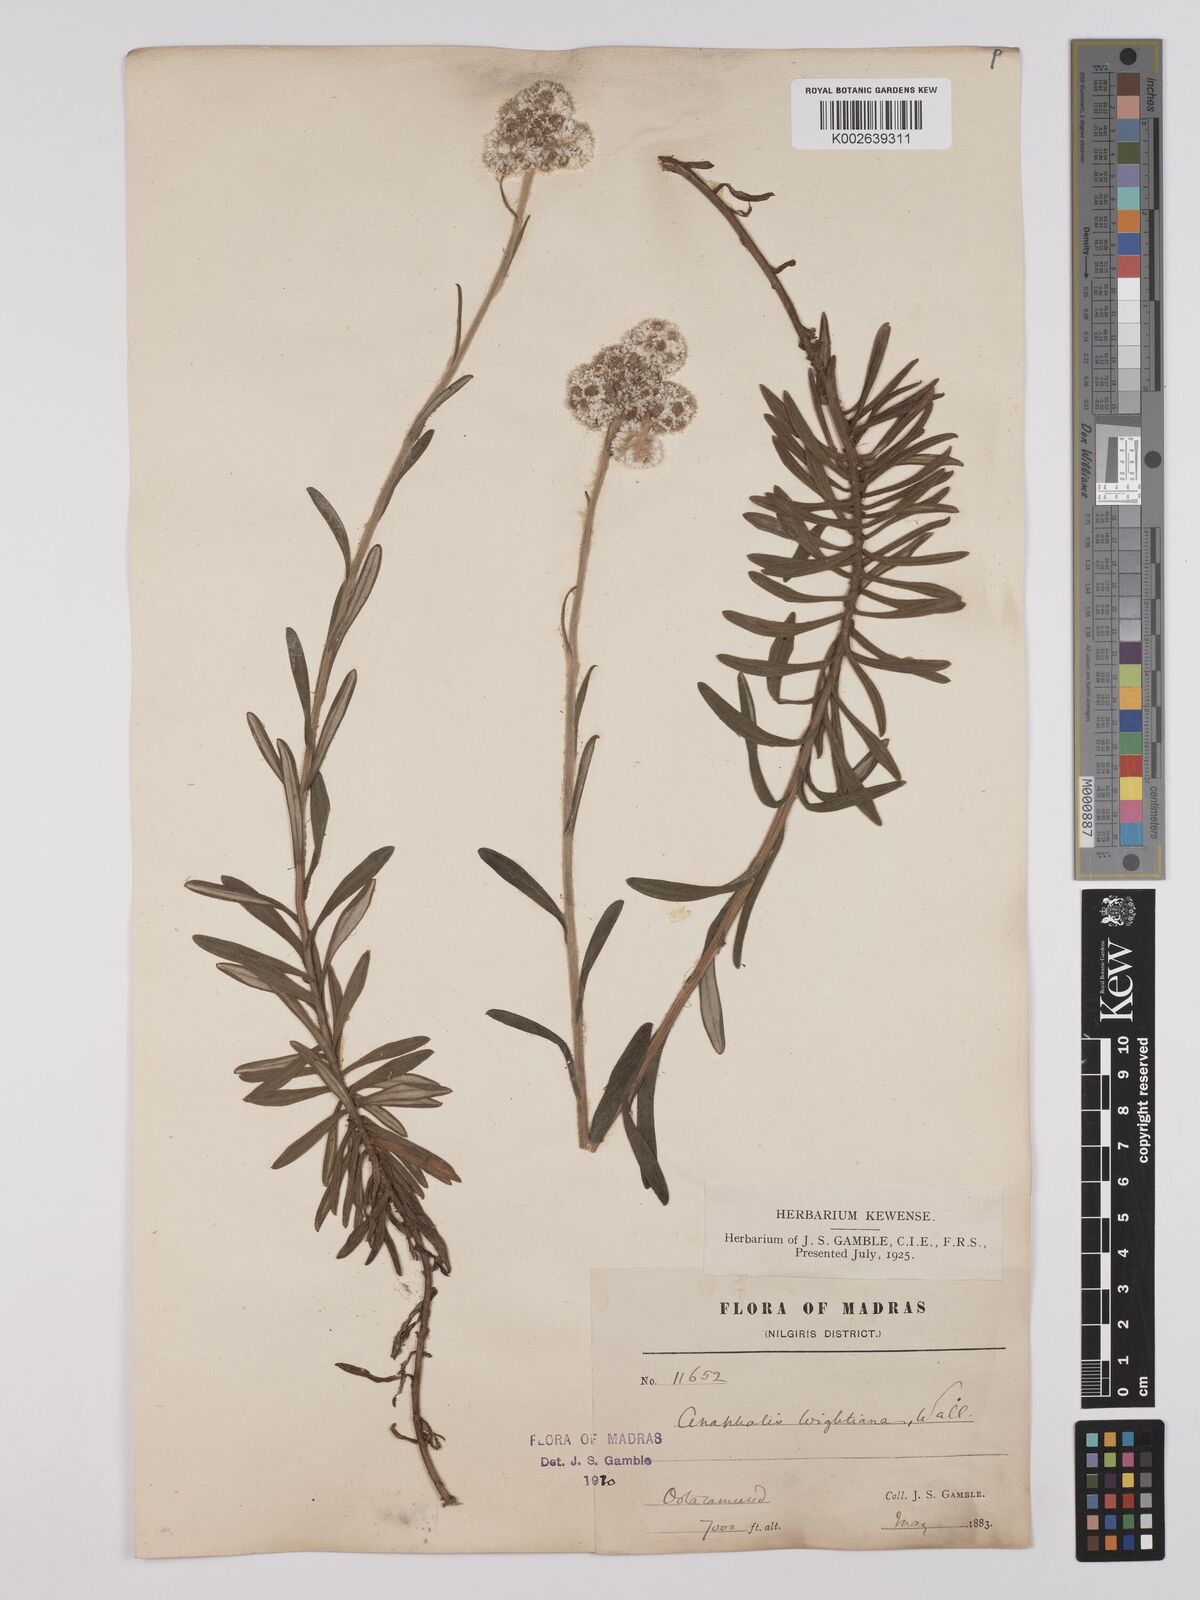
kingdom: Plantae
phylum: Tracheophyta
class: Magnoliopsida
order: Asterales
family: Asteraceae
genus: Anaphalis
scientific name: Anaphalis wightiana
